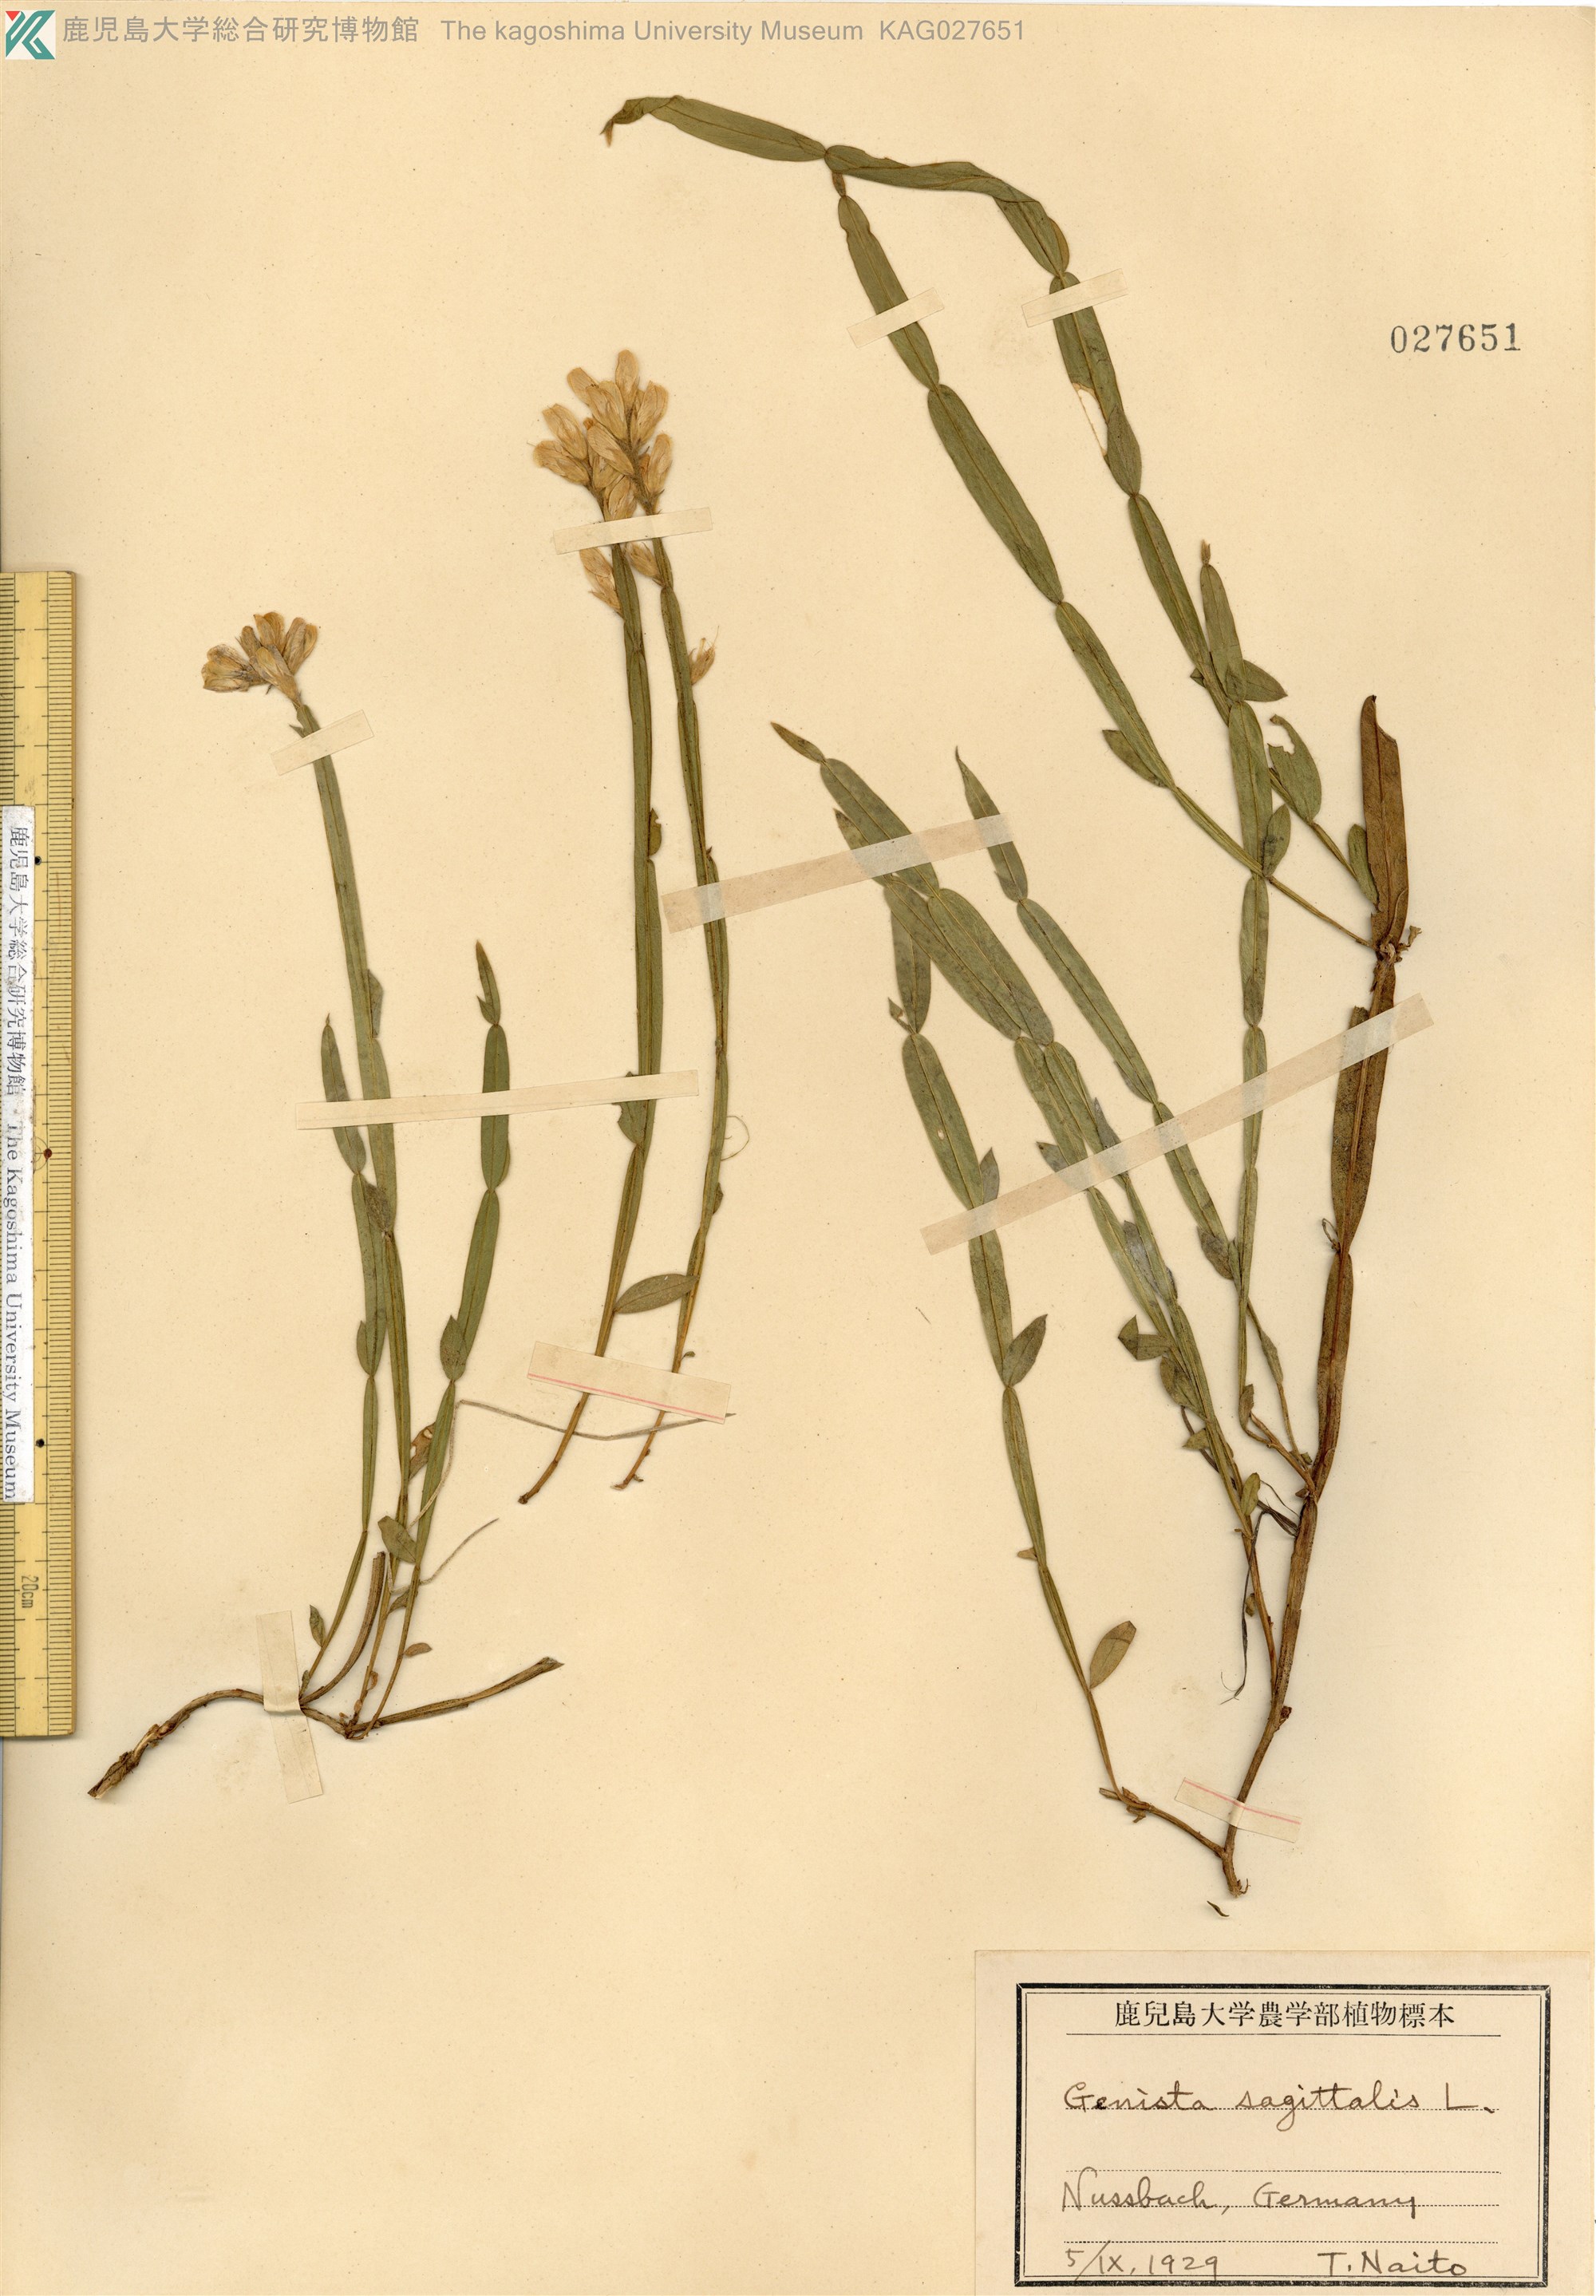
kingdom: Plantae
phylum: Tracheophyta
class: Magnoliopsida
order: Fabales
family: Fabaceae
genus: Genista
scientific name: Genista sagittalis
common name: Winged greenweed
